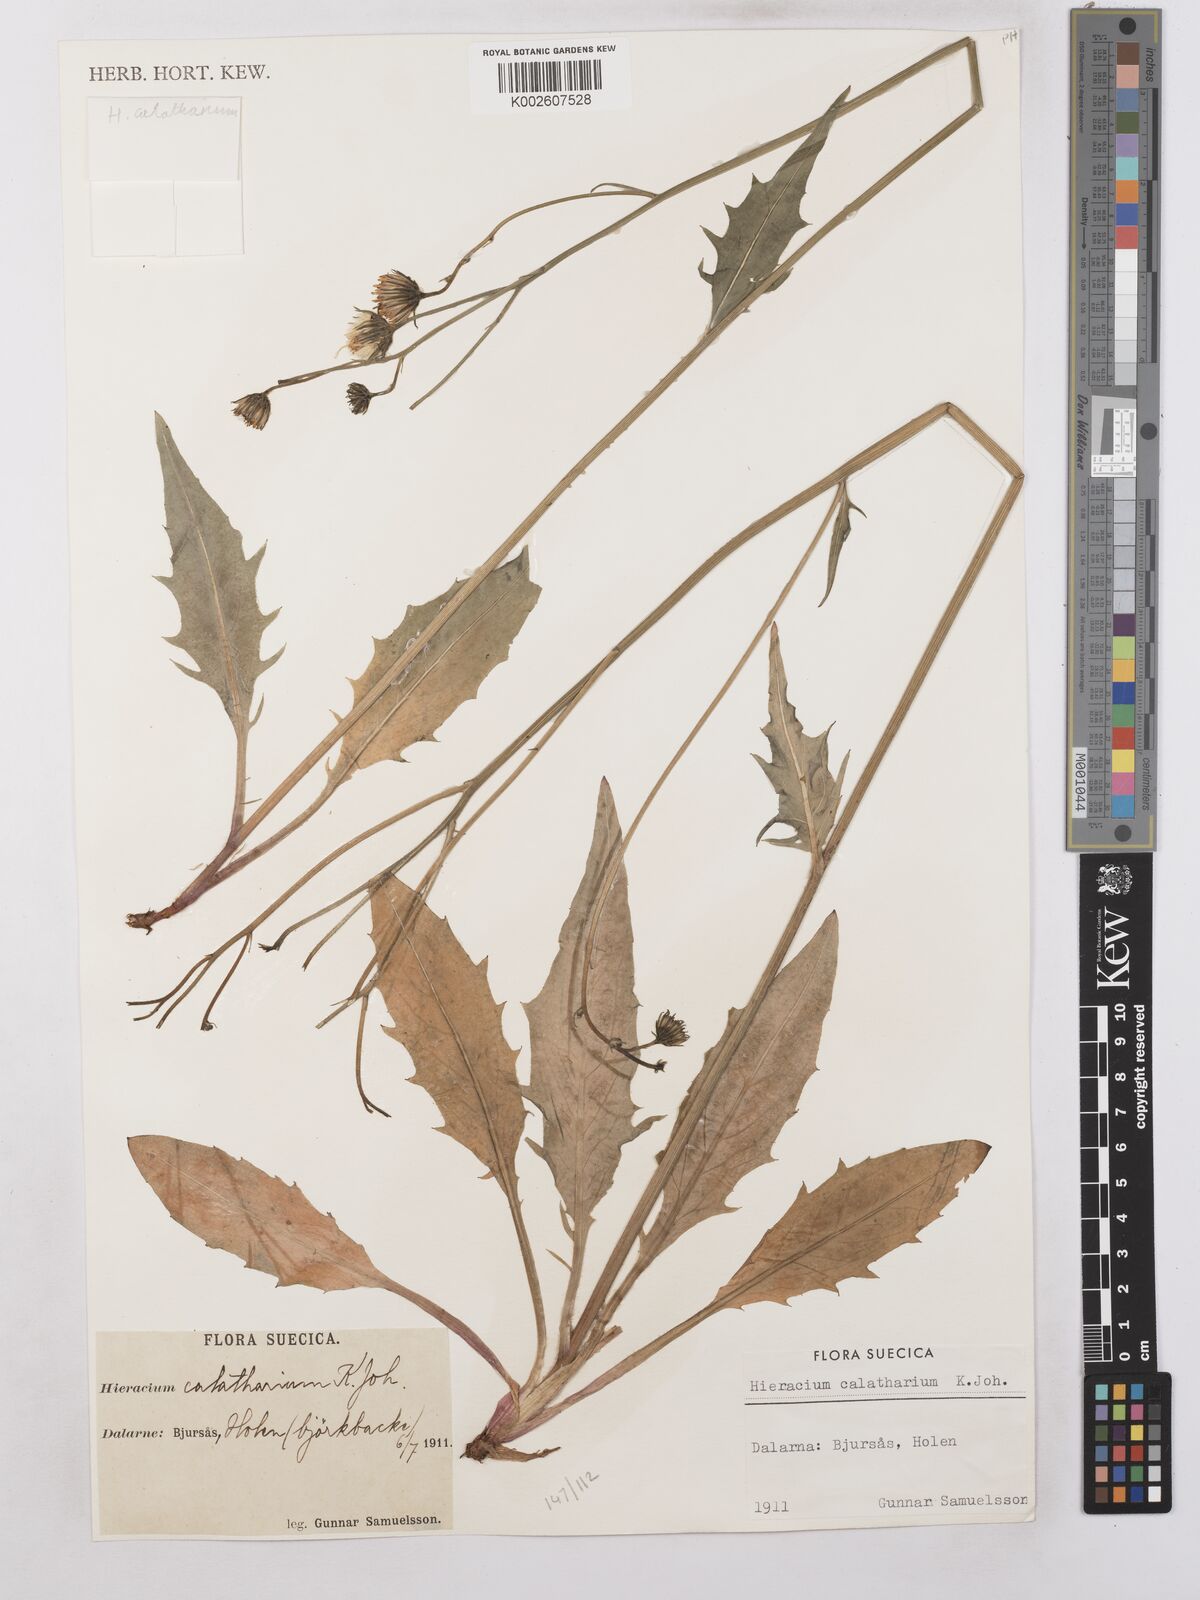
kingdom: Plantae
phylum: Tracheophyta
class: Magnoliopsida
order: Asterales
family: Asteraceae
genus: Hieracium
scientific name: Hieracium caesium
